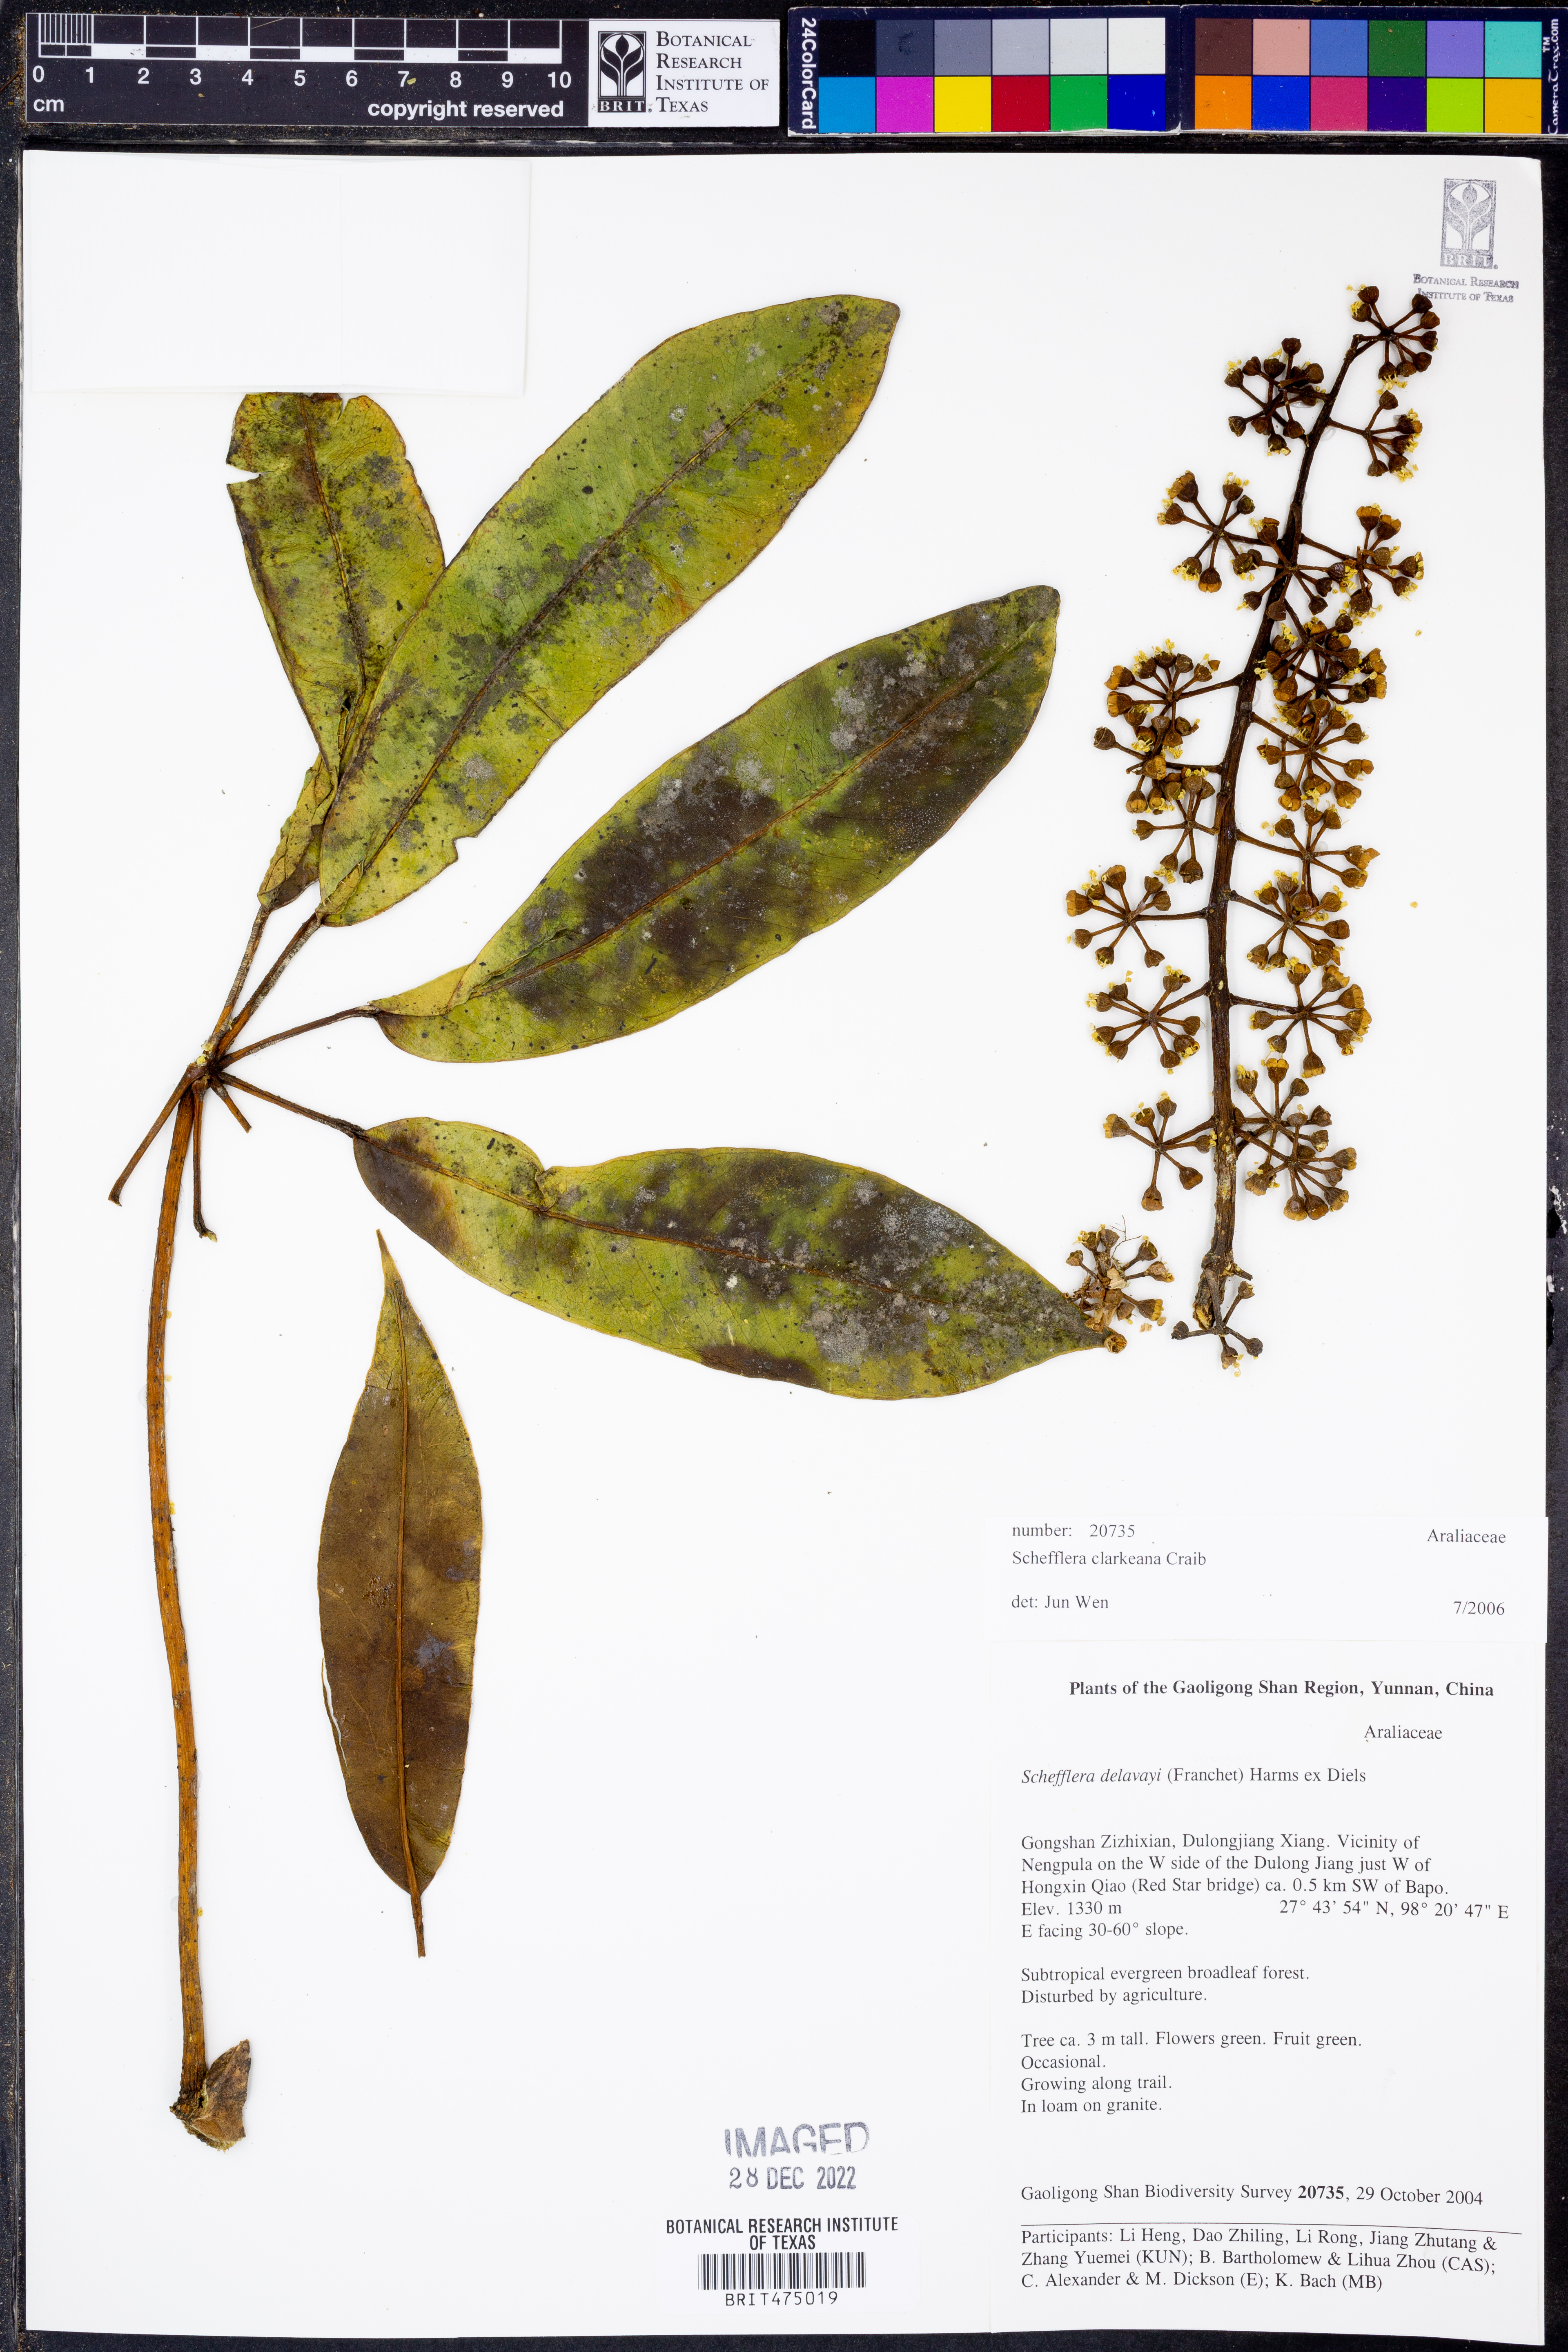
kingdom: Plantae
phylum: Tracheophyta
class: Magnoliopsida
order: Apiales
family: Araliaceae
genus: Heptapleurum
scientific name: Heptapleurum bengalense
